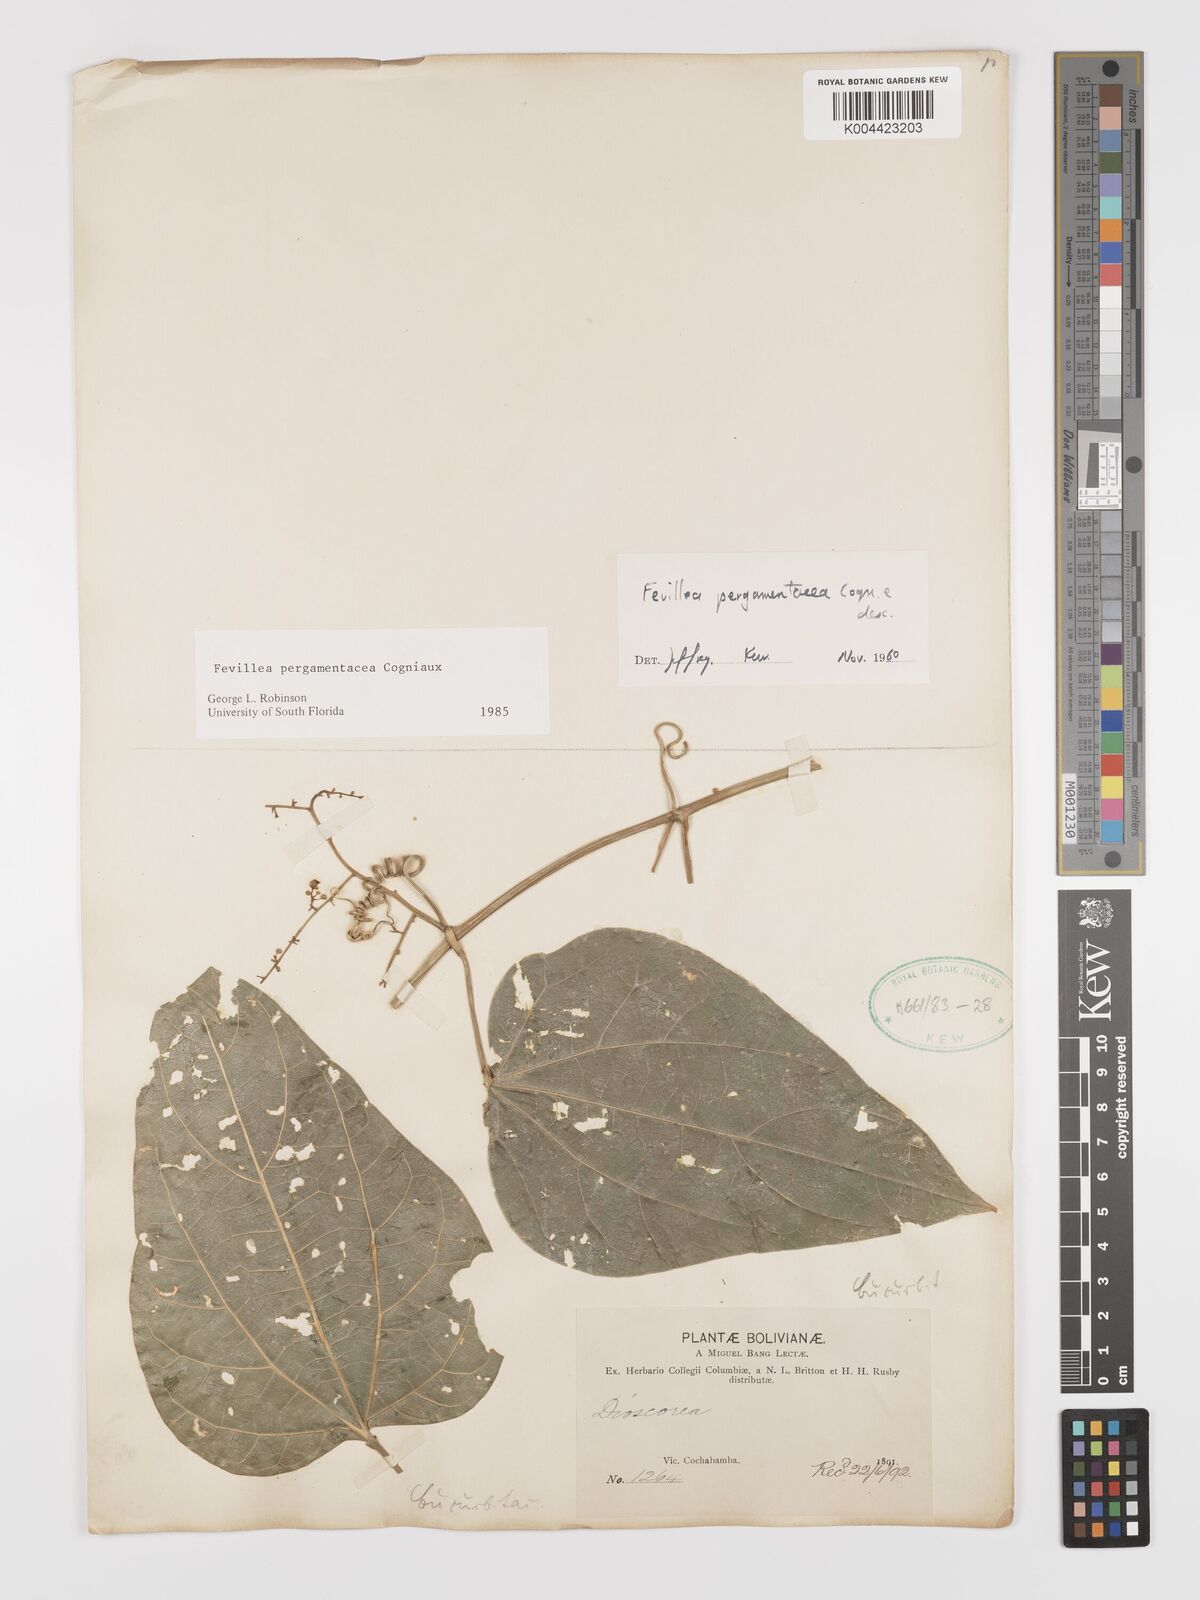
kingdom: Plantae
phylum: Tracheophyta
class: Magnoliopsida
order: Cucurbitales
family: Cucurbitaceae
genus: Fevillea
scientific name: Fevillea pergamentacea
